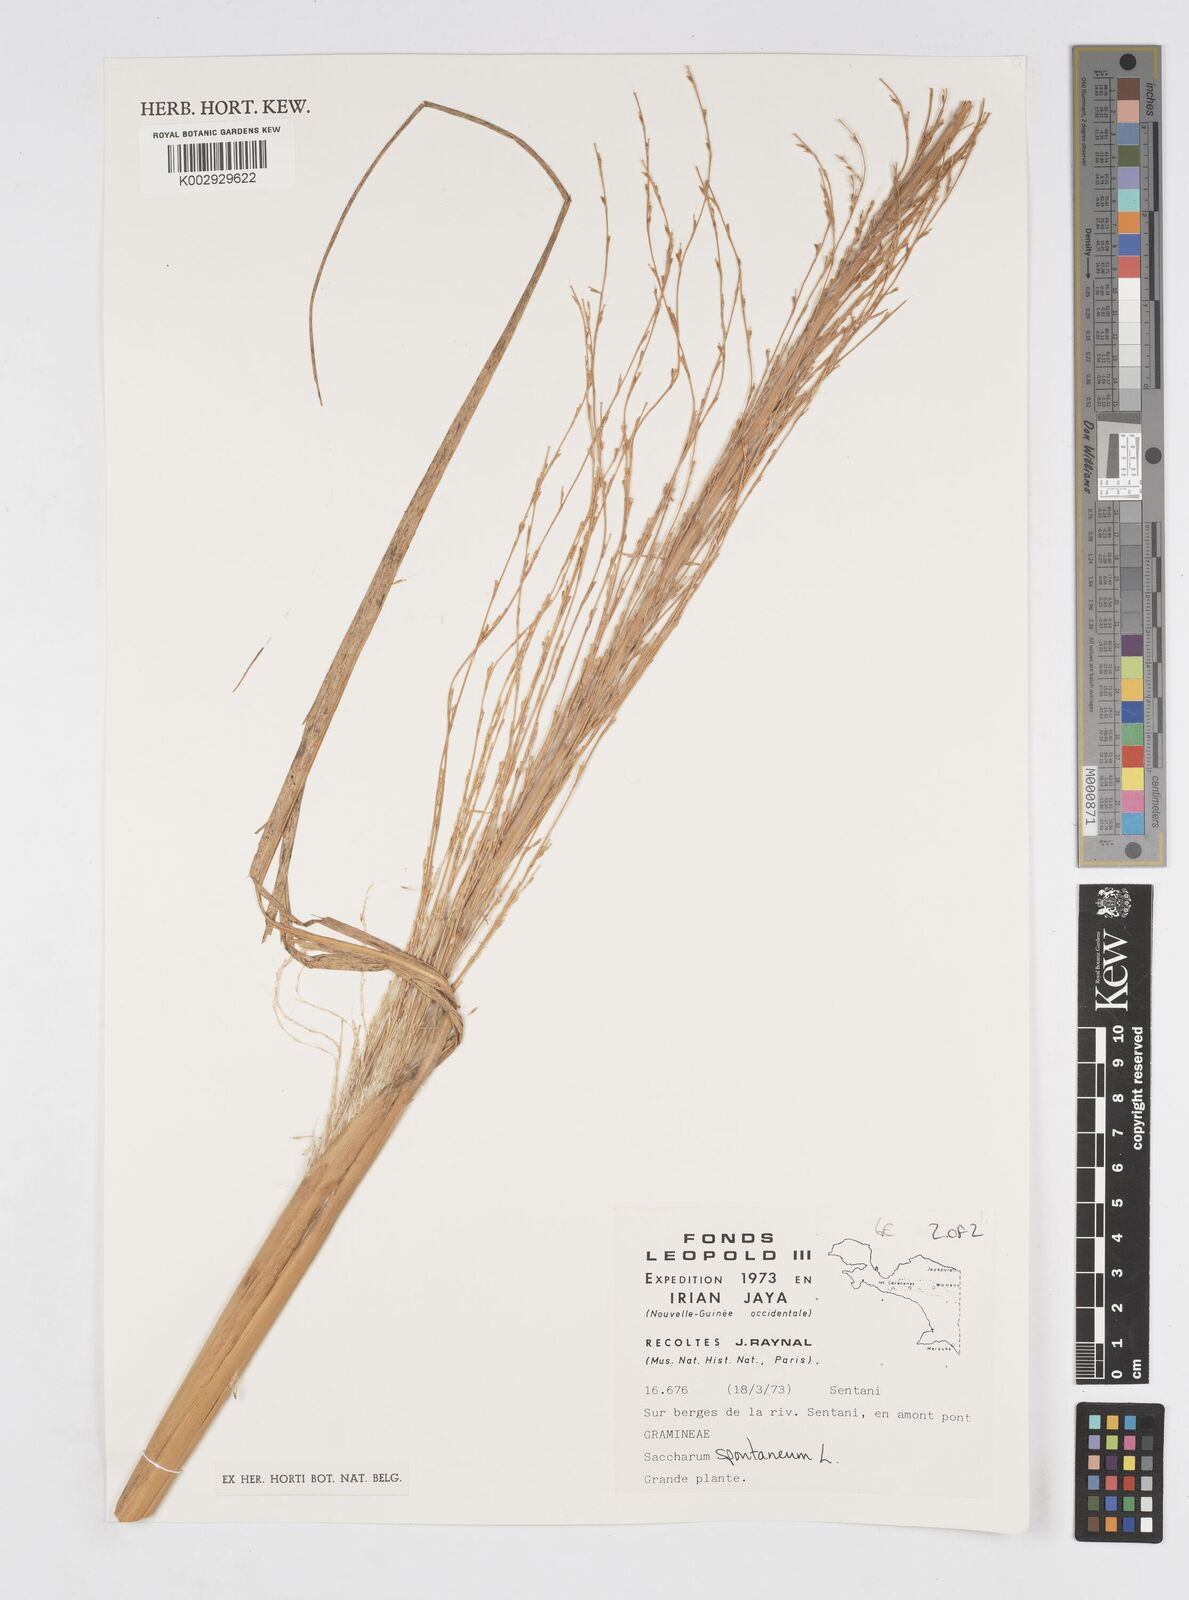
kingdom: Plantae
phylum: Tracheophyta
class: Liliopsida
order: Poales
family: Poaceae
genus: Saccharum
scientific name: Saccharum spontaneum
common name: Wild sugarcane
